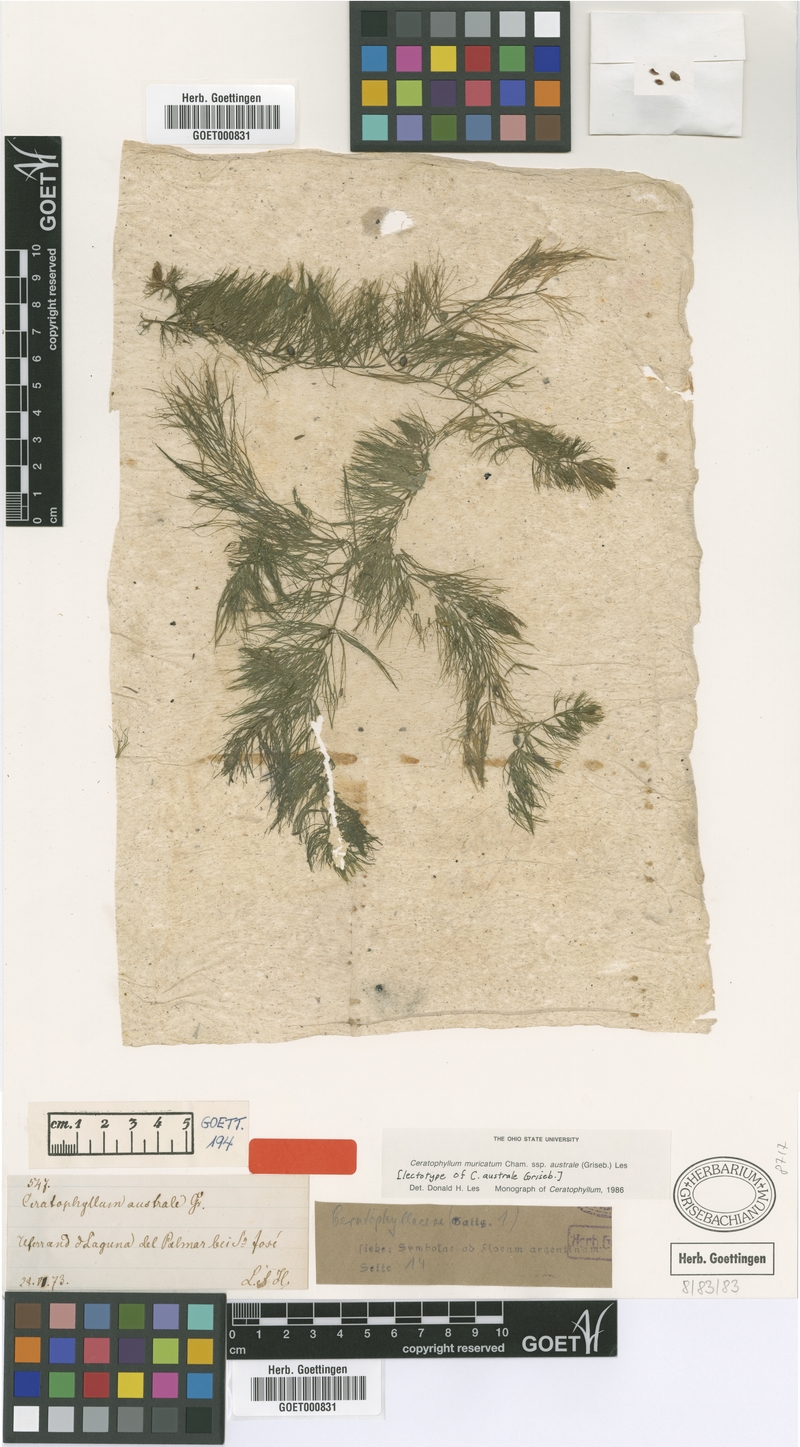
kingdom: Plantae
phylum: Tracheophyta
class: Magnoliopsida
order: Ceratophyllales
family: Ceratophyllaceae
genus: Ceratophyllum
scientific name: Ceratophyllum muricatum
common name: Prickly hornwort
